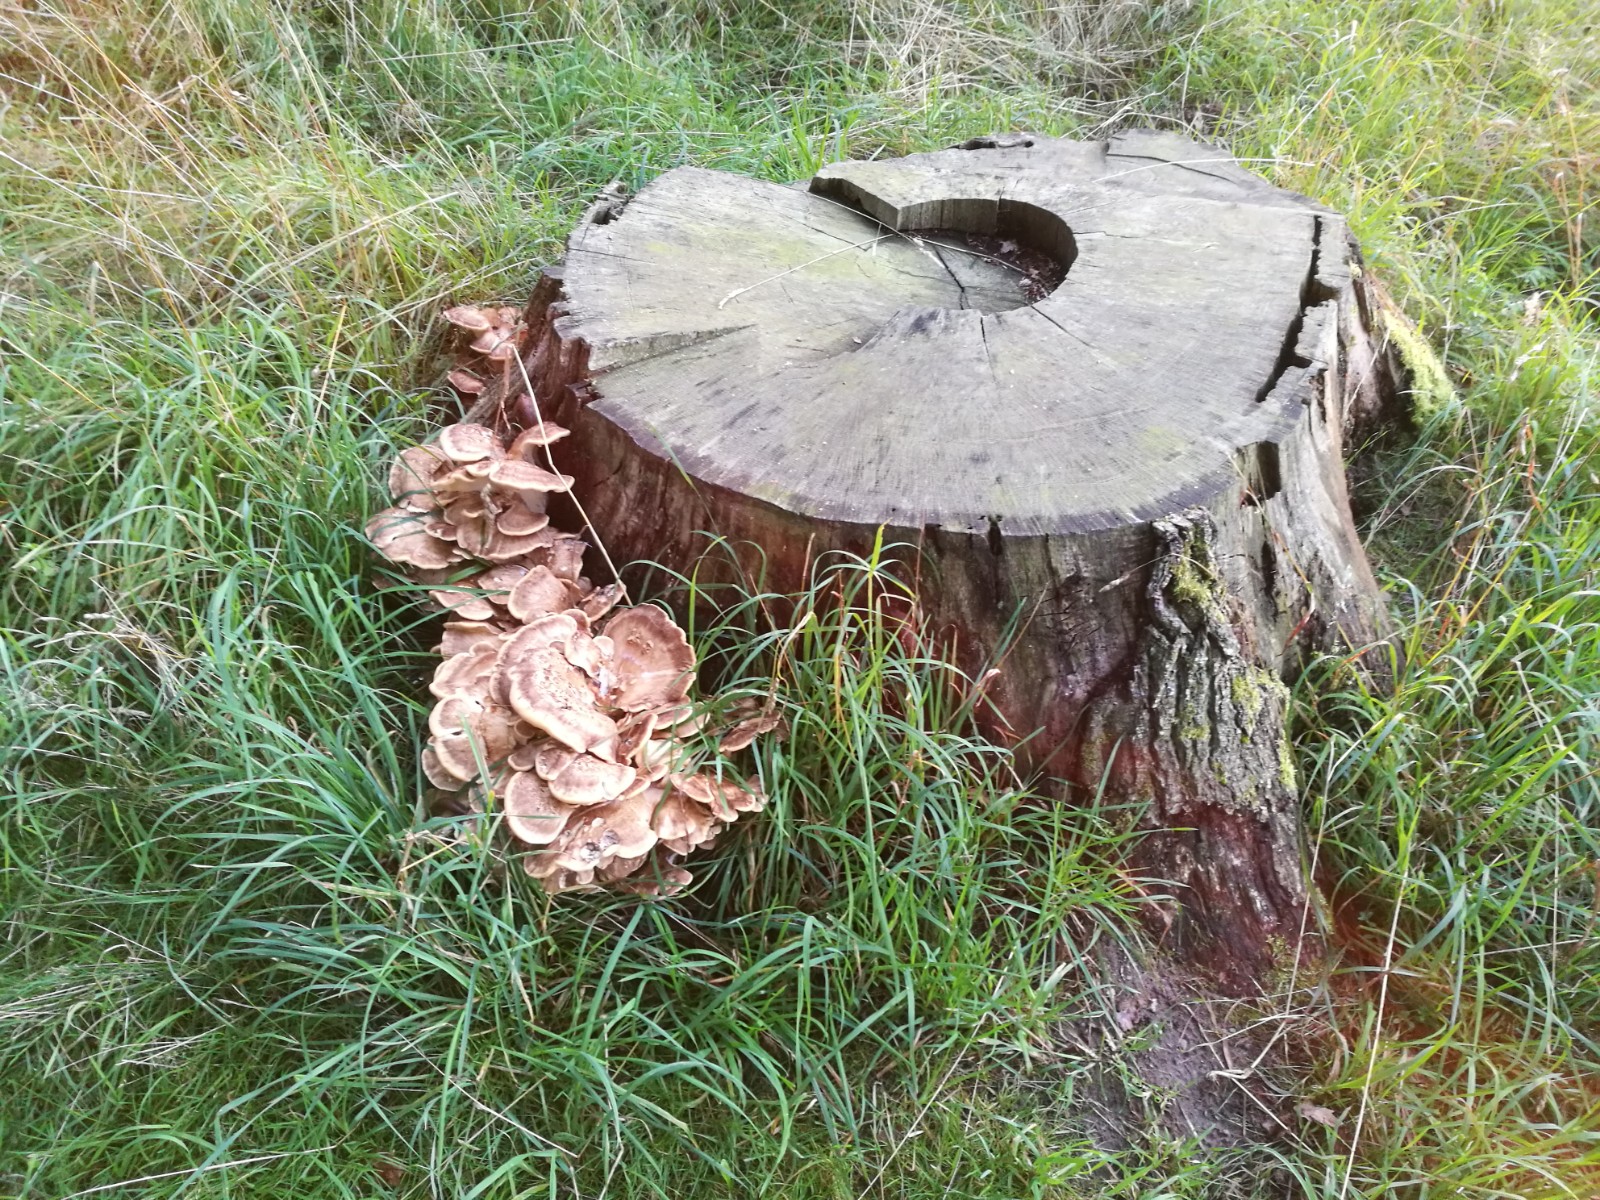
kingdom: Fungi
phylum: Basidiomycota
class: Agaricomycetes
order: Polyporales
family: Meripilaceae
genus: Meripilus
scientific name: Meripilus giganteus
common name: kæmpeporesvamp
